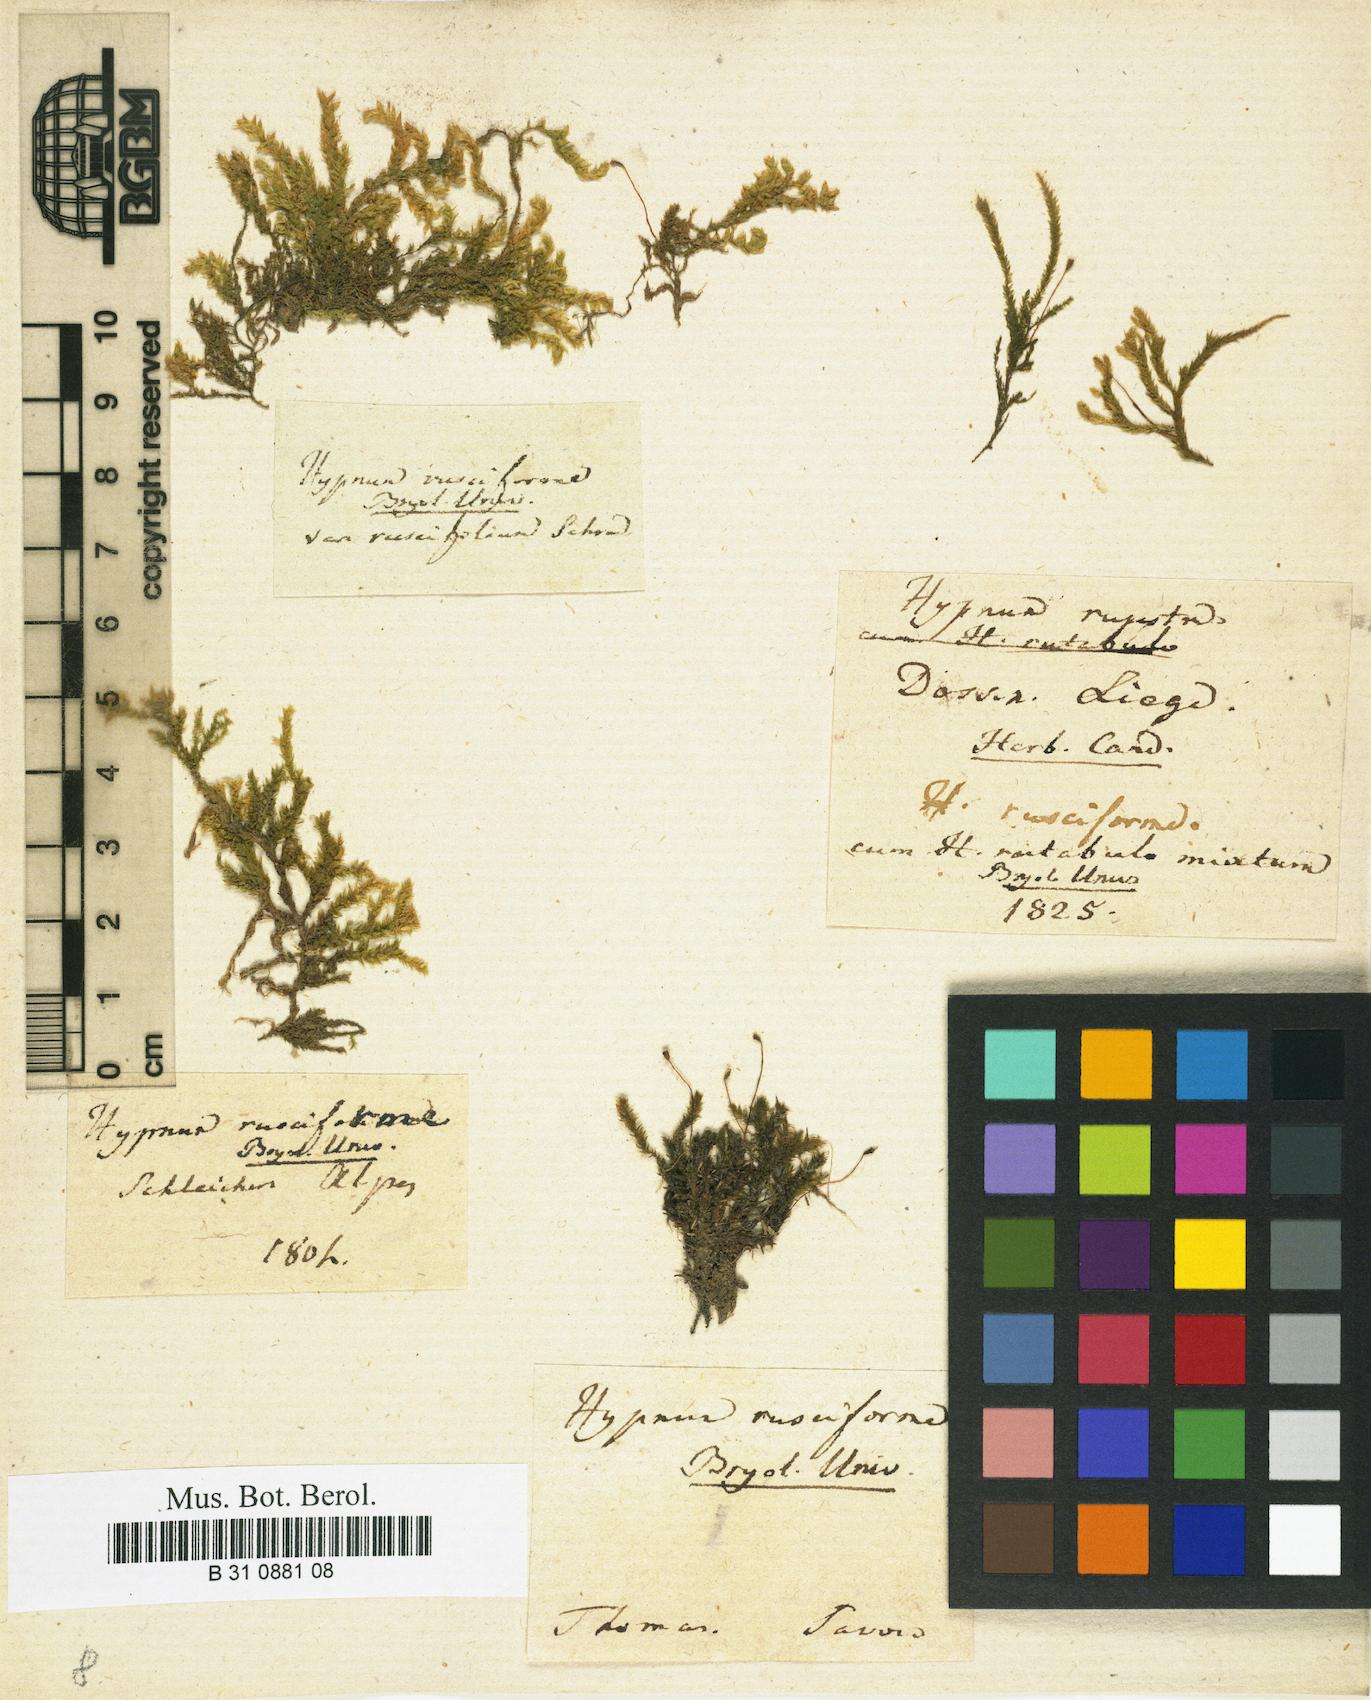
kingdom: Plantae
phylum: Bryophyta
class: Bryopsida
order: Hypnales
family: Brachytheciaceae
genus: Rhynchostegium
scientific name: Rhynchostegium riparioides
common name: Platyhypnidium moss
